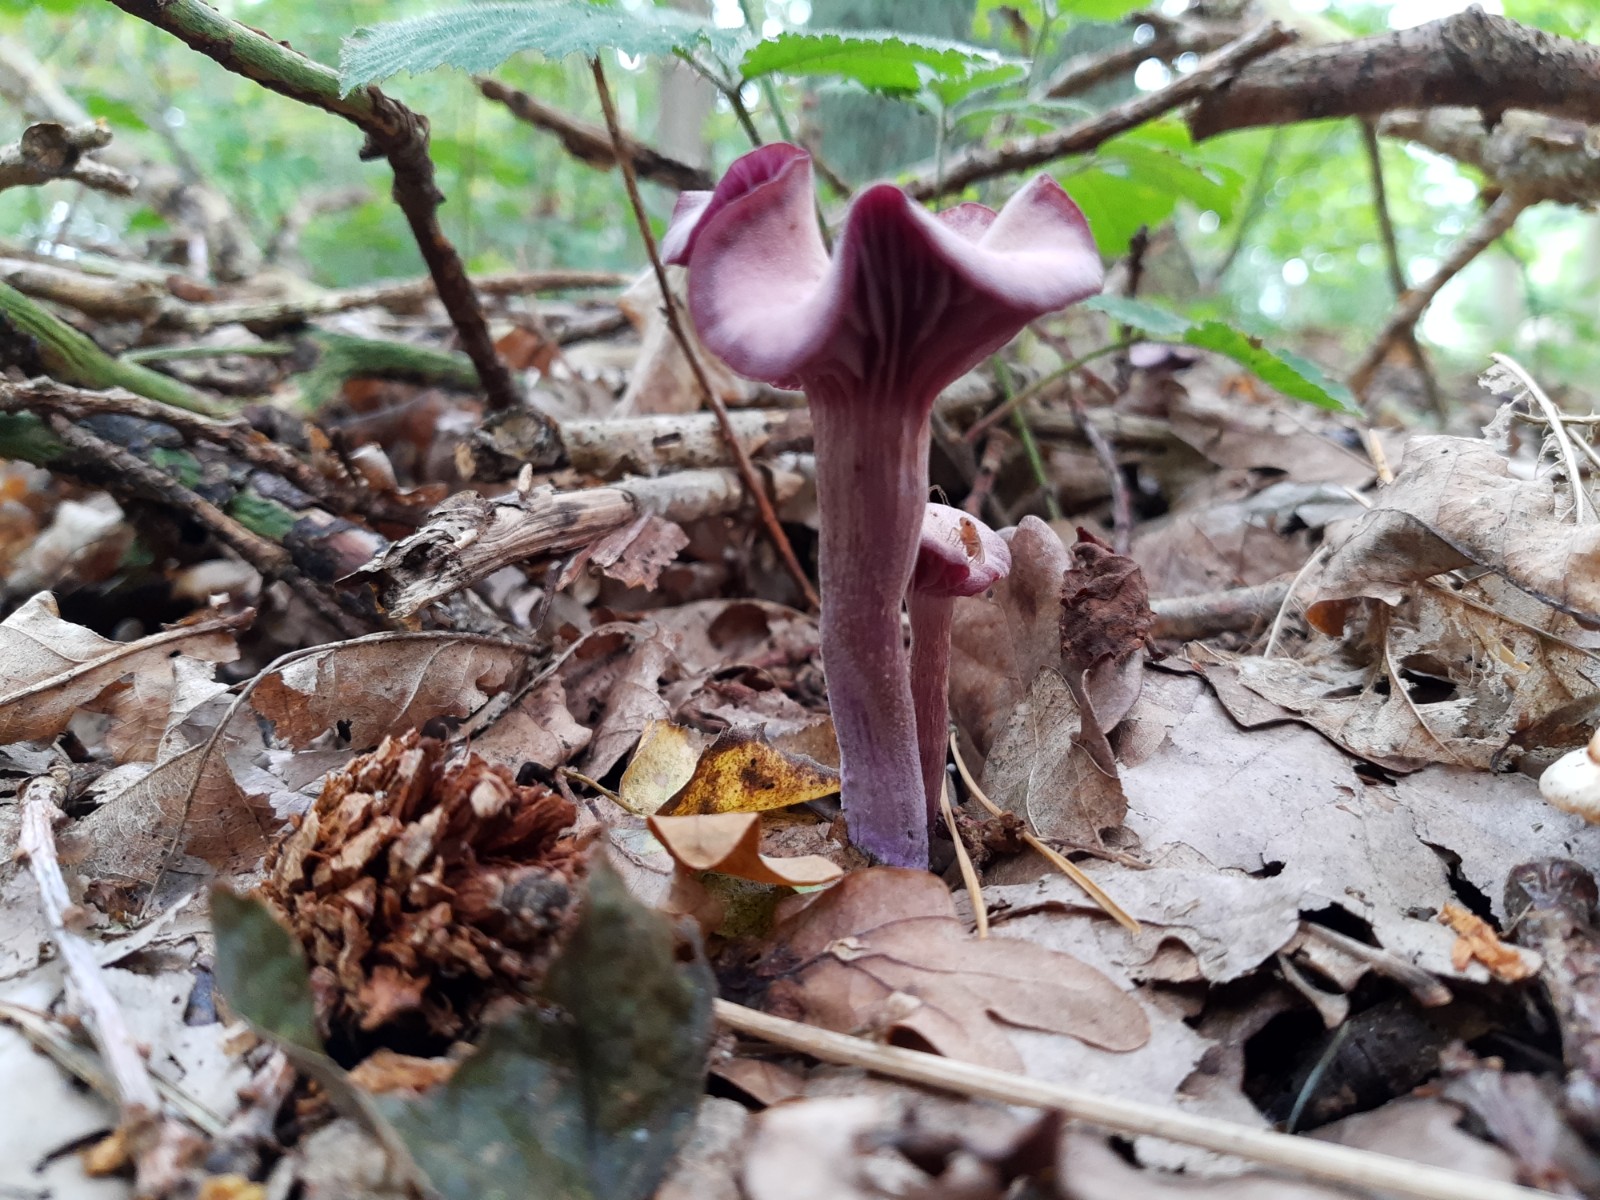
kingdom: Fungi
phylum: Basidiomycota
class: Agaricomycetes
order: Agaricales
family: Hydnangiaceae
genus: Laccaria
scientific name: Laccaria amethystina
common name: violet ametysthat
